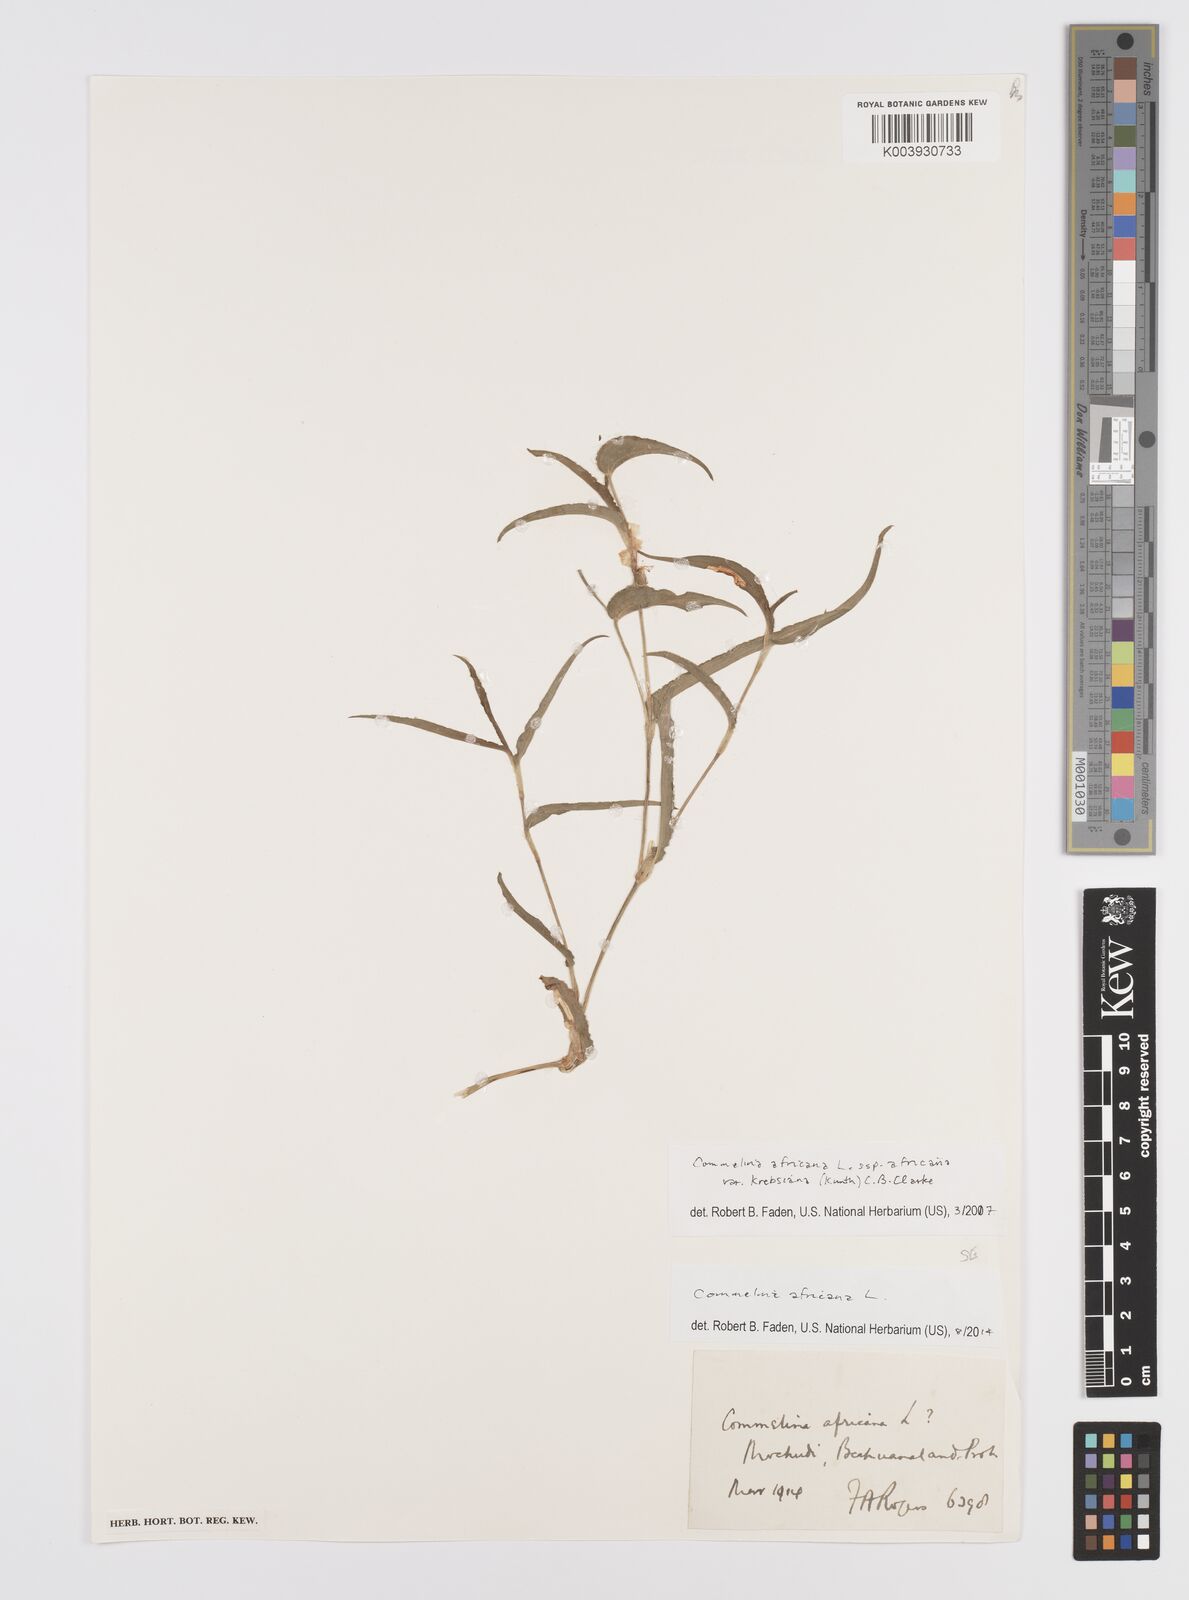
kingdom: Plantae
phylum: Tracheophyta
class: Liliopsida
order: Commelinales
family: Commelinaceae
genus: Commelina
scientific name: Commelina africana
